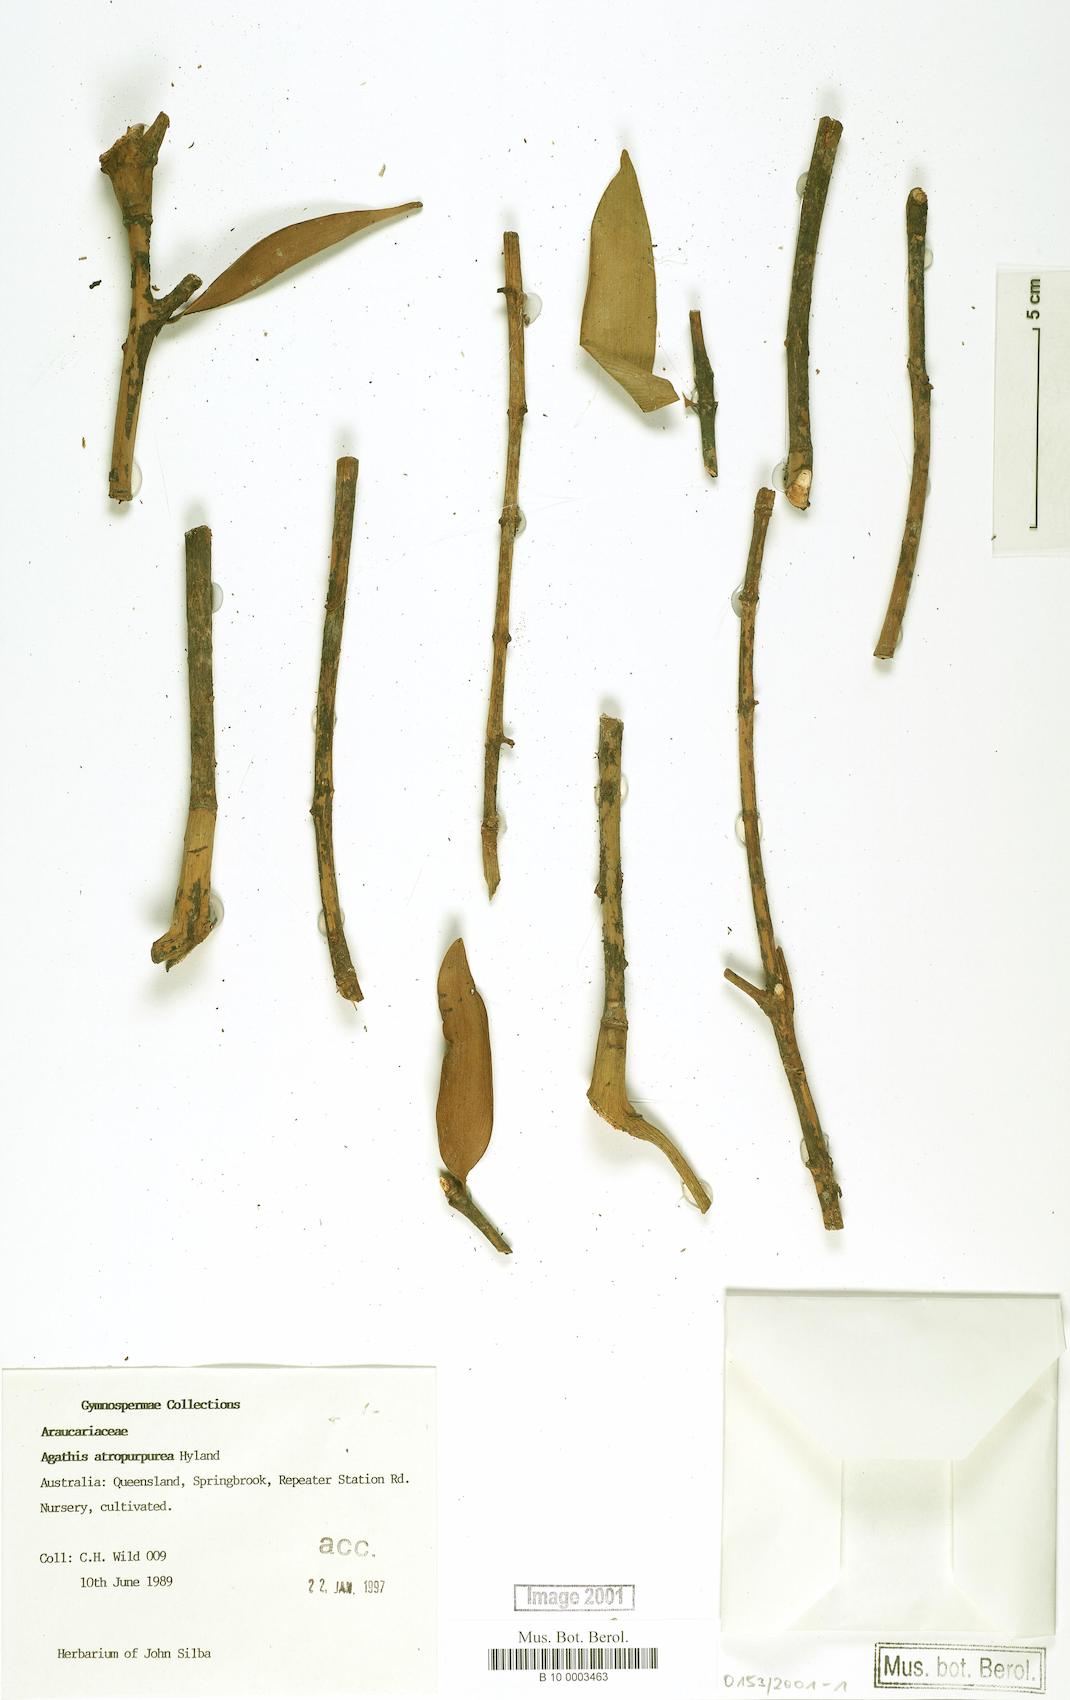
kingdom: Plantae
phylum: Tracheophyta
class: Pinopsida
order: Pinales
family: Araucariaceae
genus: Agathis
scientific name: Agathis atropurpurea
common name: Black kauri
